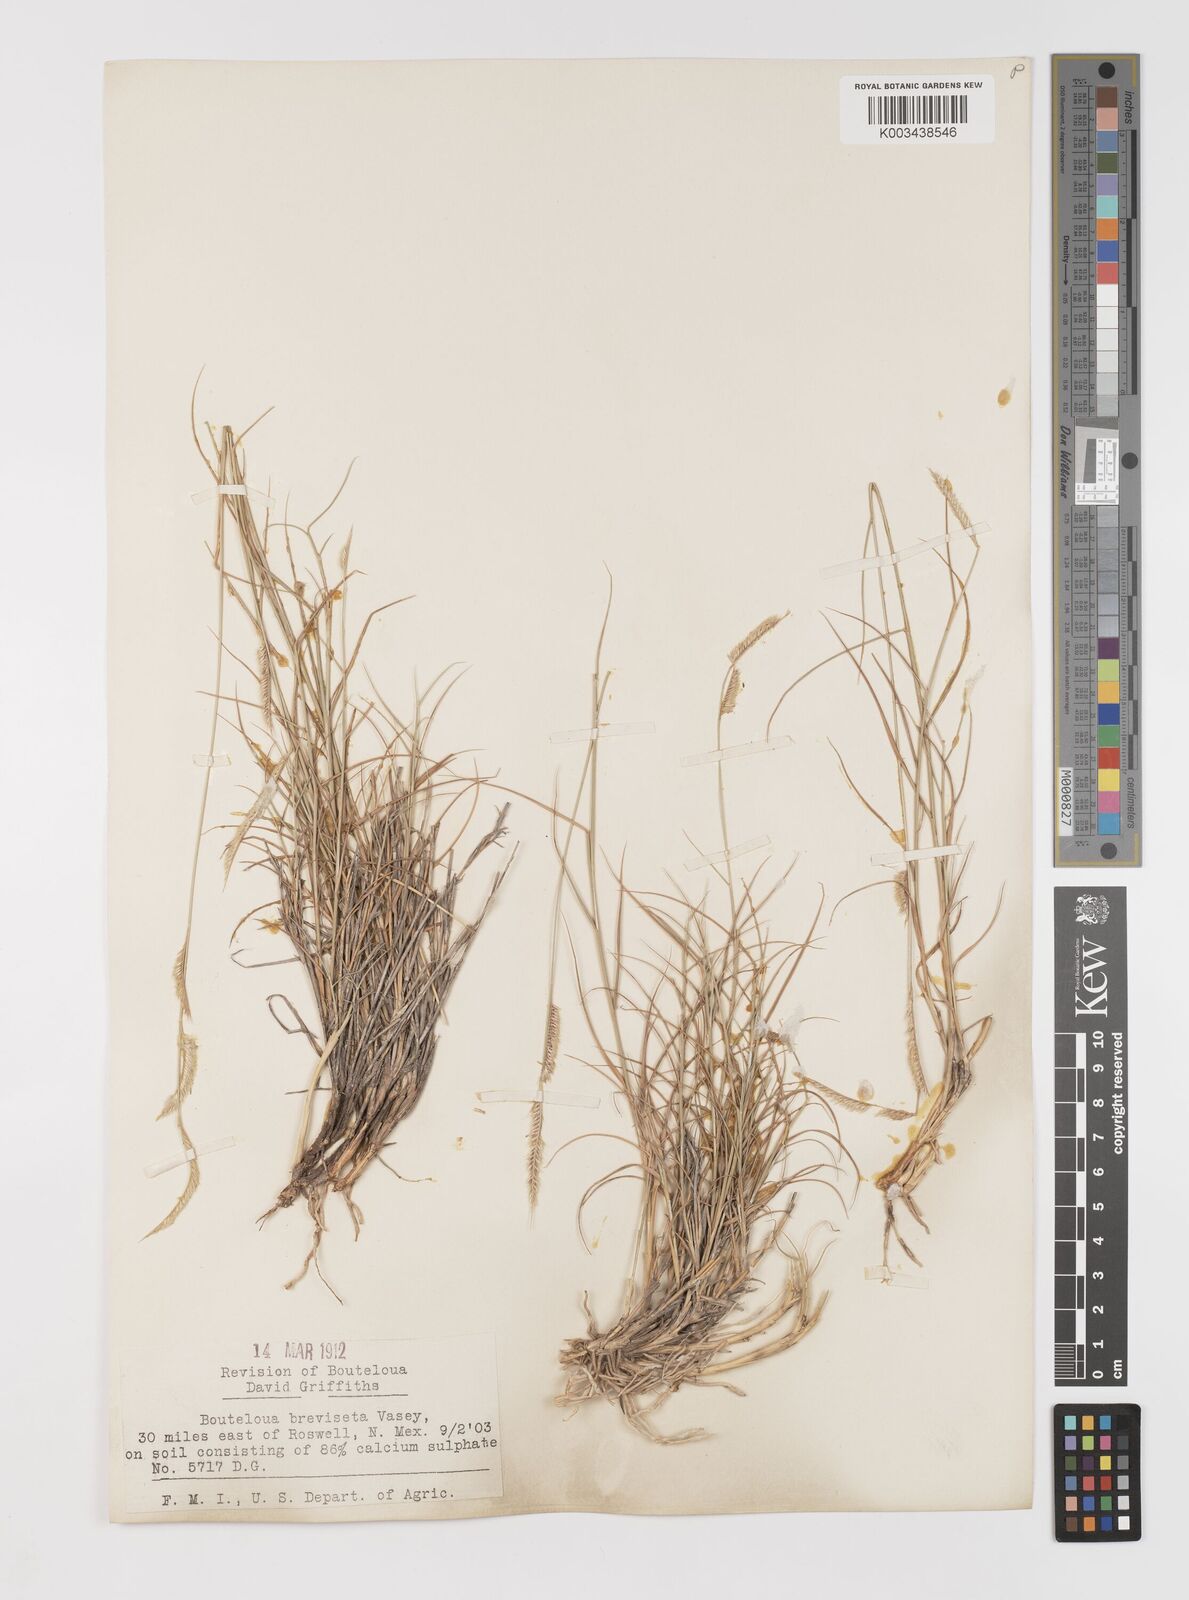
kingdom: Plantae
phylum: Tracheophyta
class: Liliopsida
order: Poales
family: Poaceae
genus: Bouteloua
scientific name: Bouteloua breviseta
